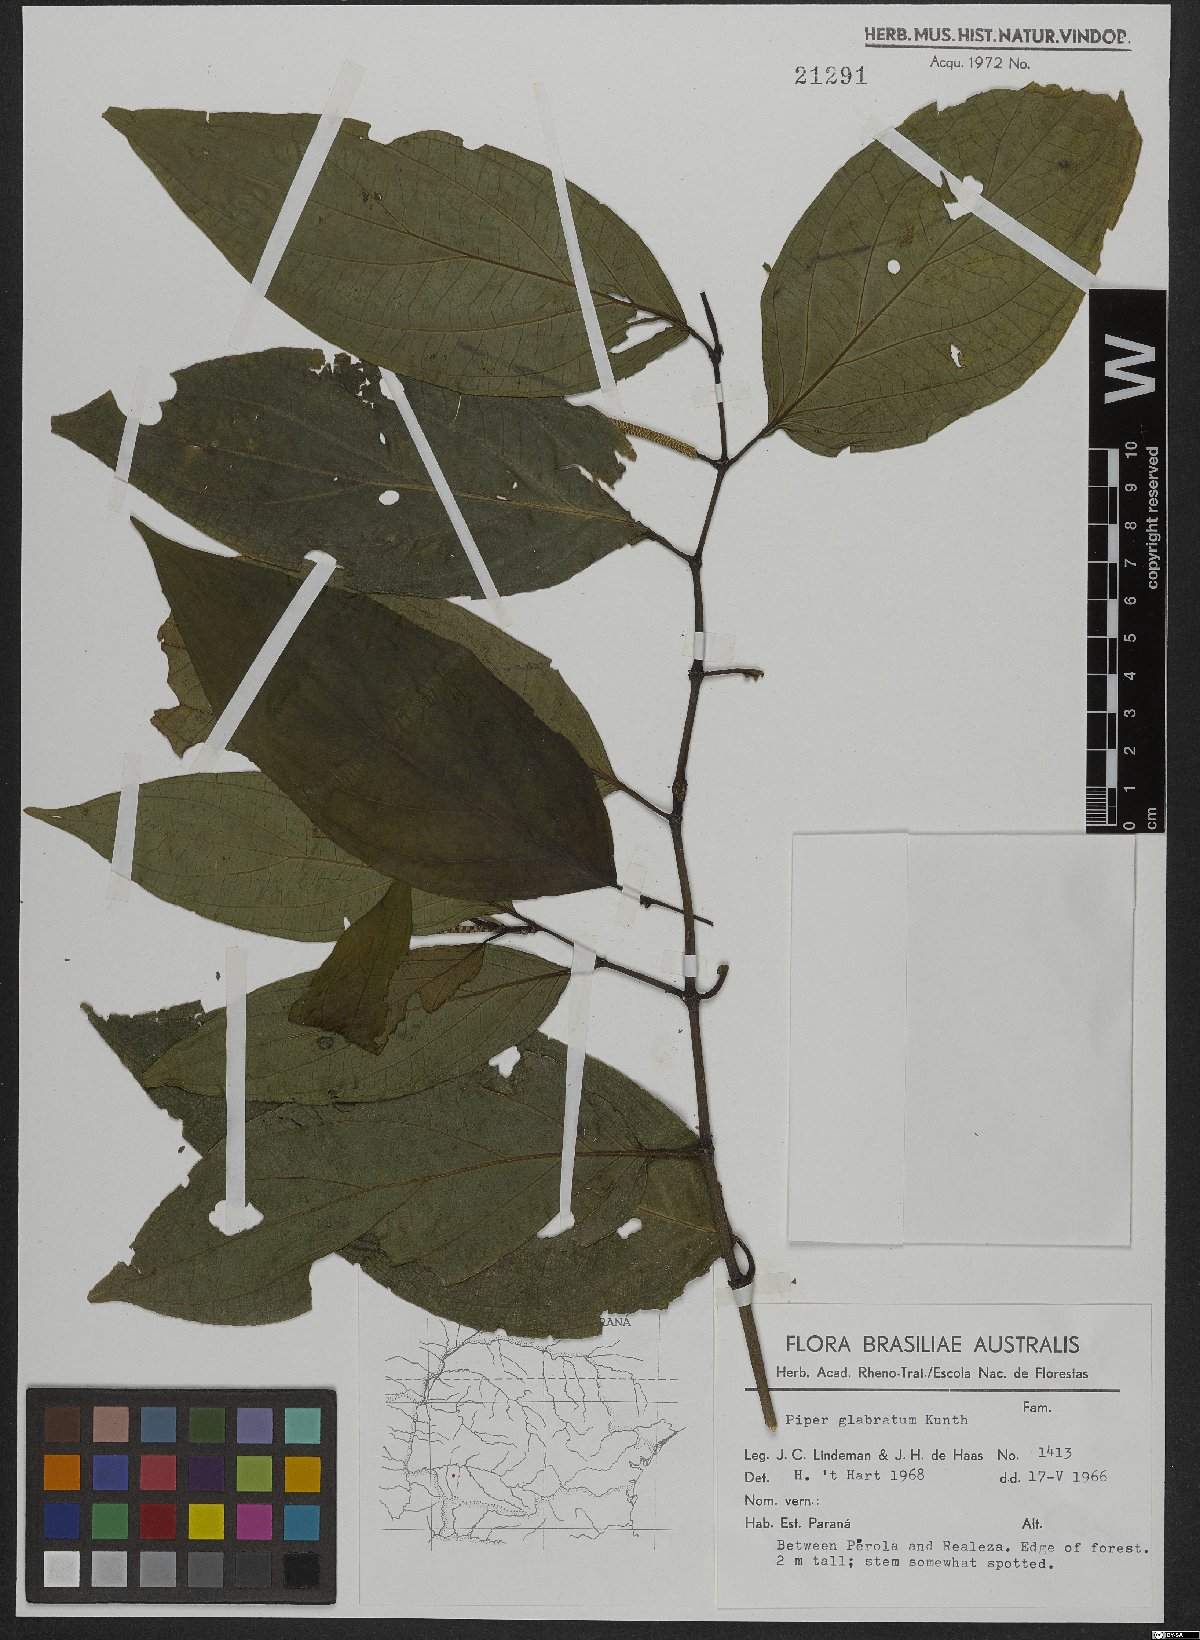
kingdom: Plantae
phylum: Tracheophyta
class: Magnoliopsida
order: Piperales
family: Piperaceae
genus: Piper
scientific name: Piper glabratum
